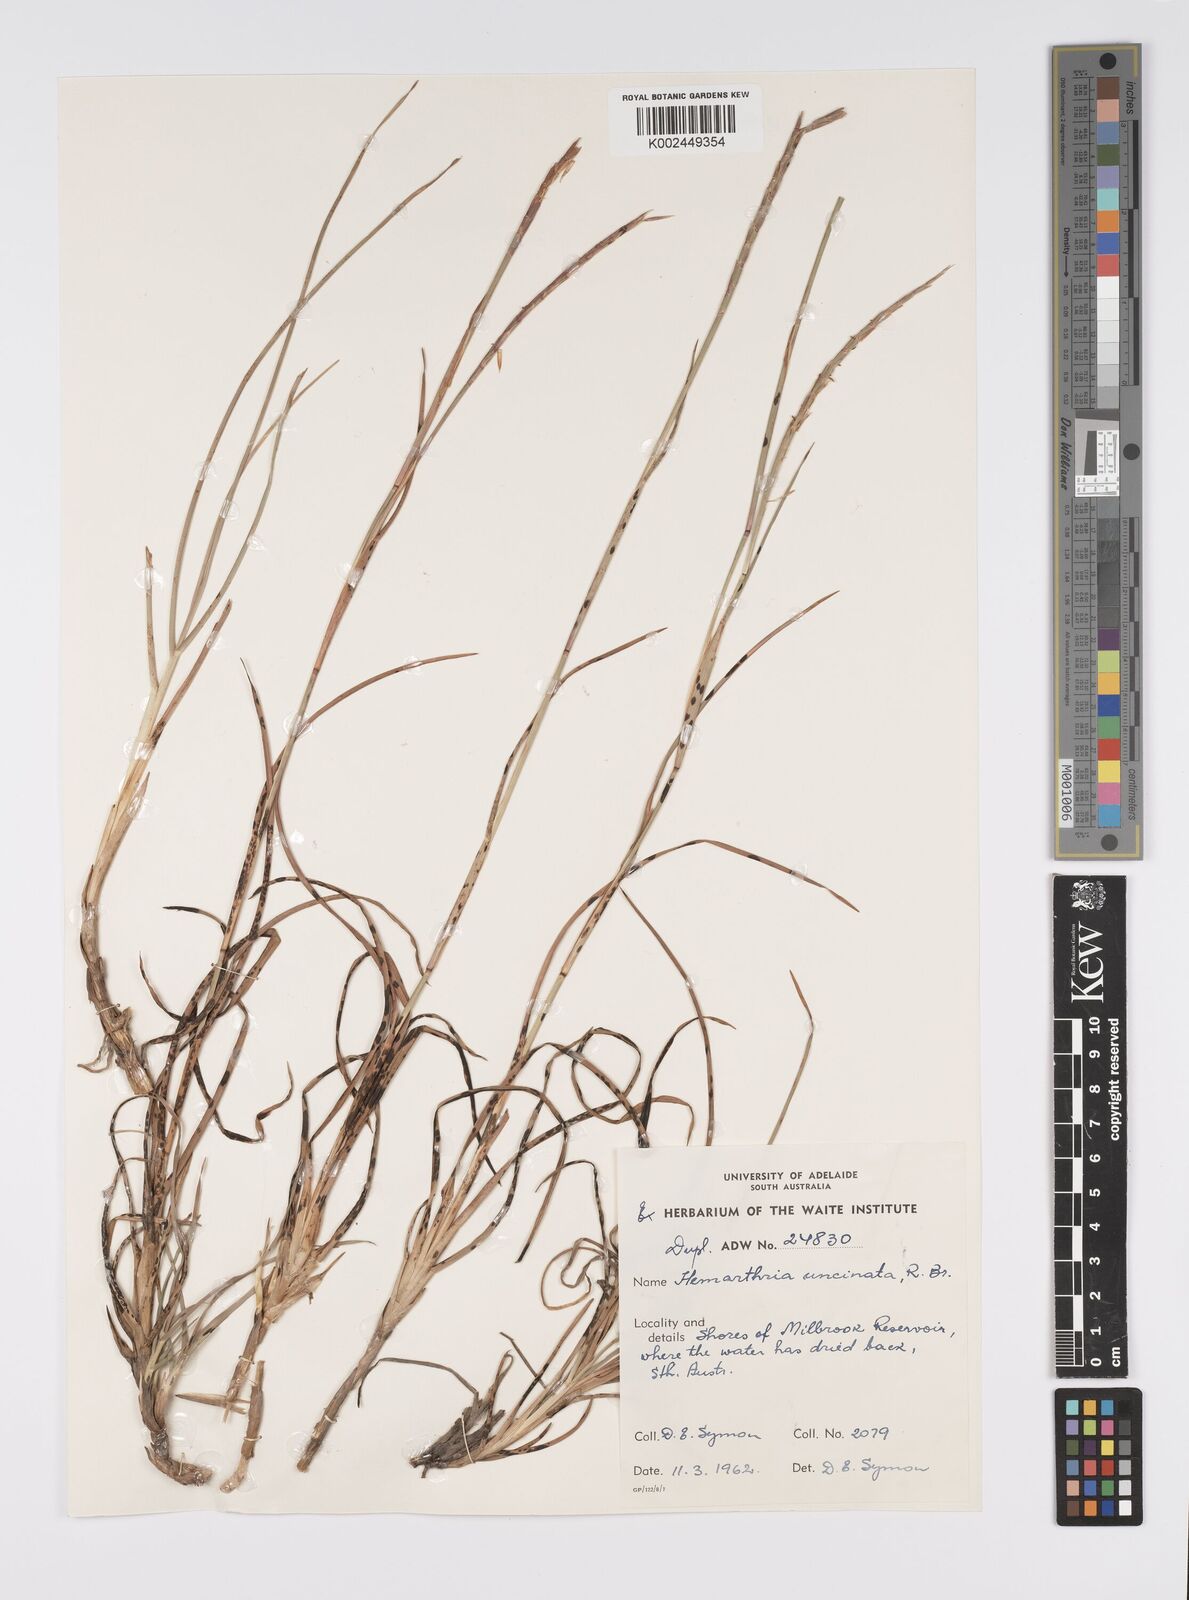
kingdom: Plantae
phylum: Tracheophyta
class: Liliopsida
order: Poales
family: Poaceae
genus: Hemarthria
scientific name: Hemarthria uncinata
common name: Matgrass
